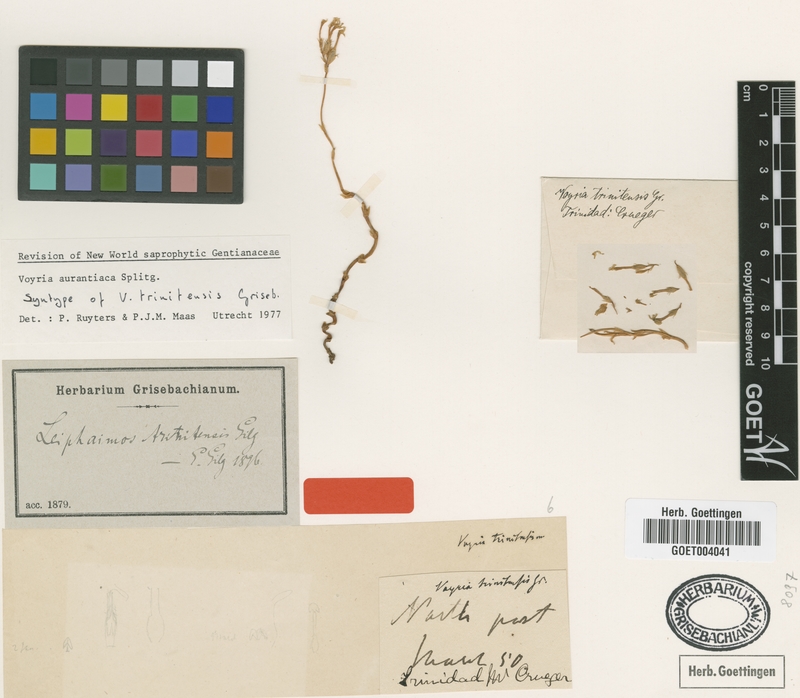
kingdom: Plantae
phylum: Tracheophyta
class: Magnoliopsida
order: Gentianales
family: Gentianaceae
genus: Voyria
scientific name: Voyria aurantiaca
